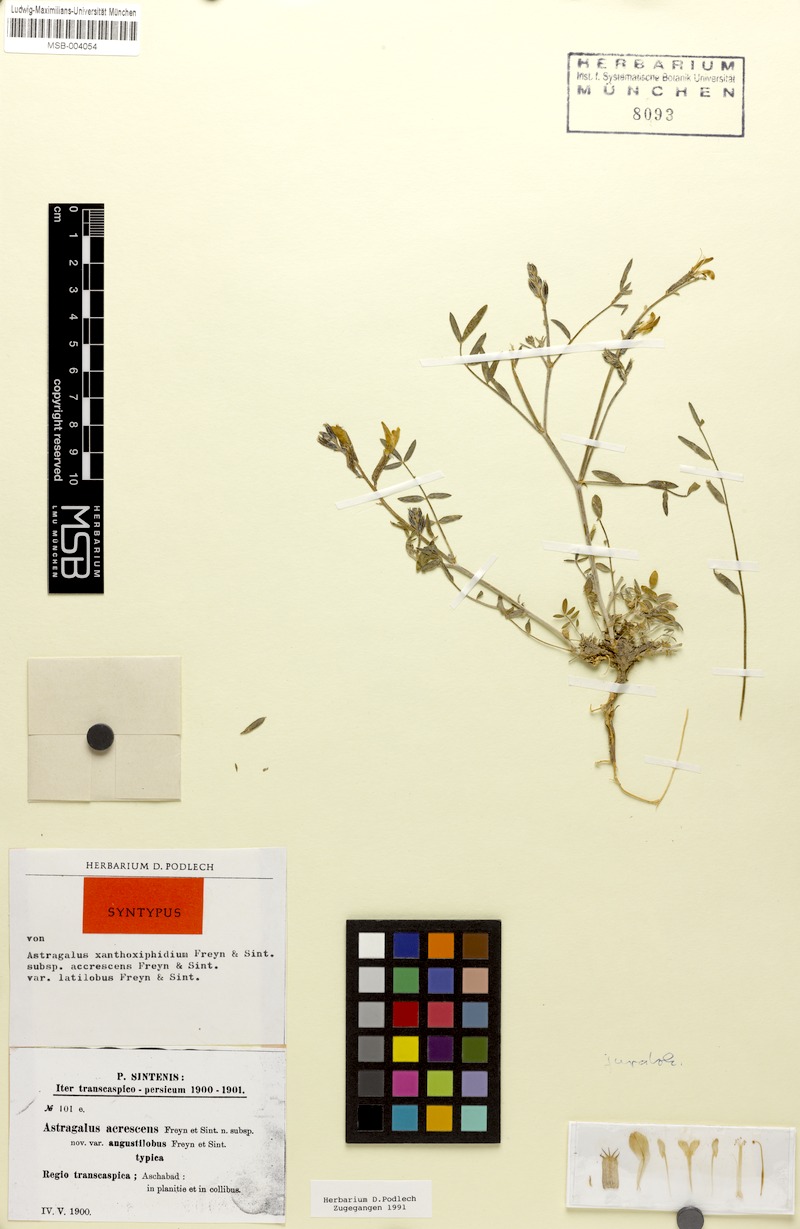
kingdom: Plantae
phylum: Tracheophyta
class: Magnoliopsida
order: Fabales
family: Fabaceae
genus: Astragalus
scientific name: Astragalus juratzkanus
